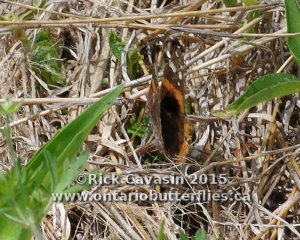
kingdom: Animalia
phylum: Arthropoda
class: Insecta
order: Lepidoptera
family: Nymphalidae
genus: Vanessa
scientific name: Vanessa atalanta
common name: Red Admiral
